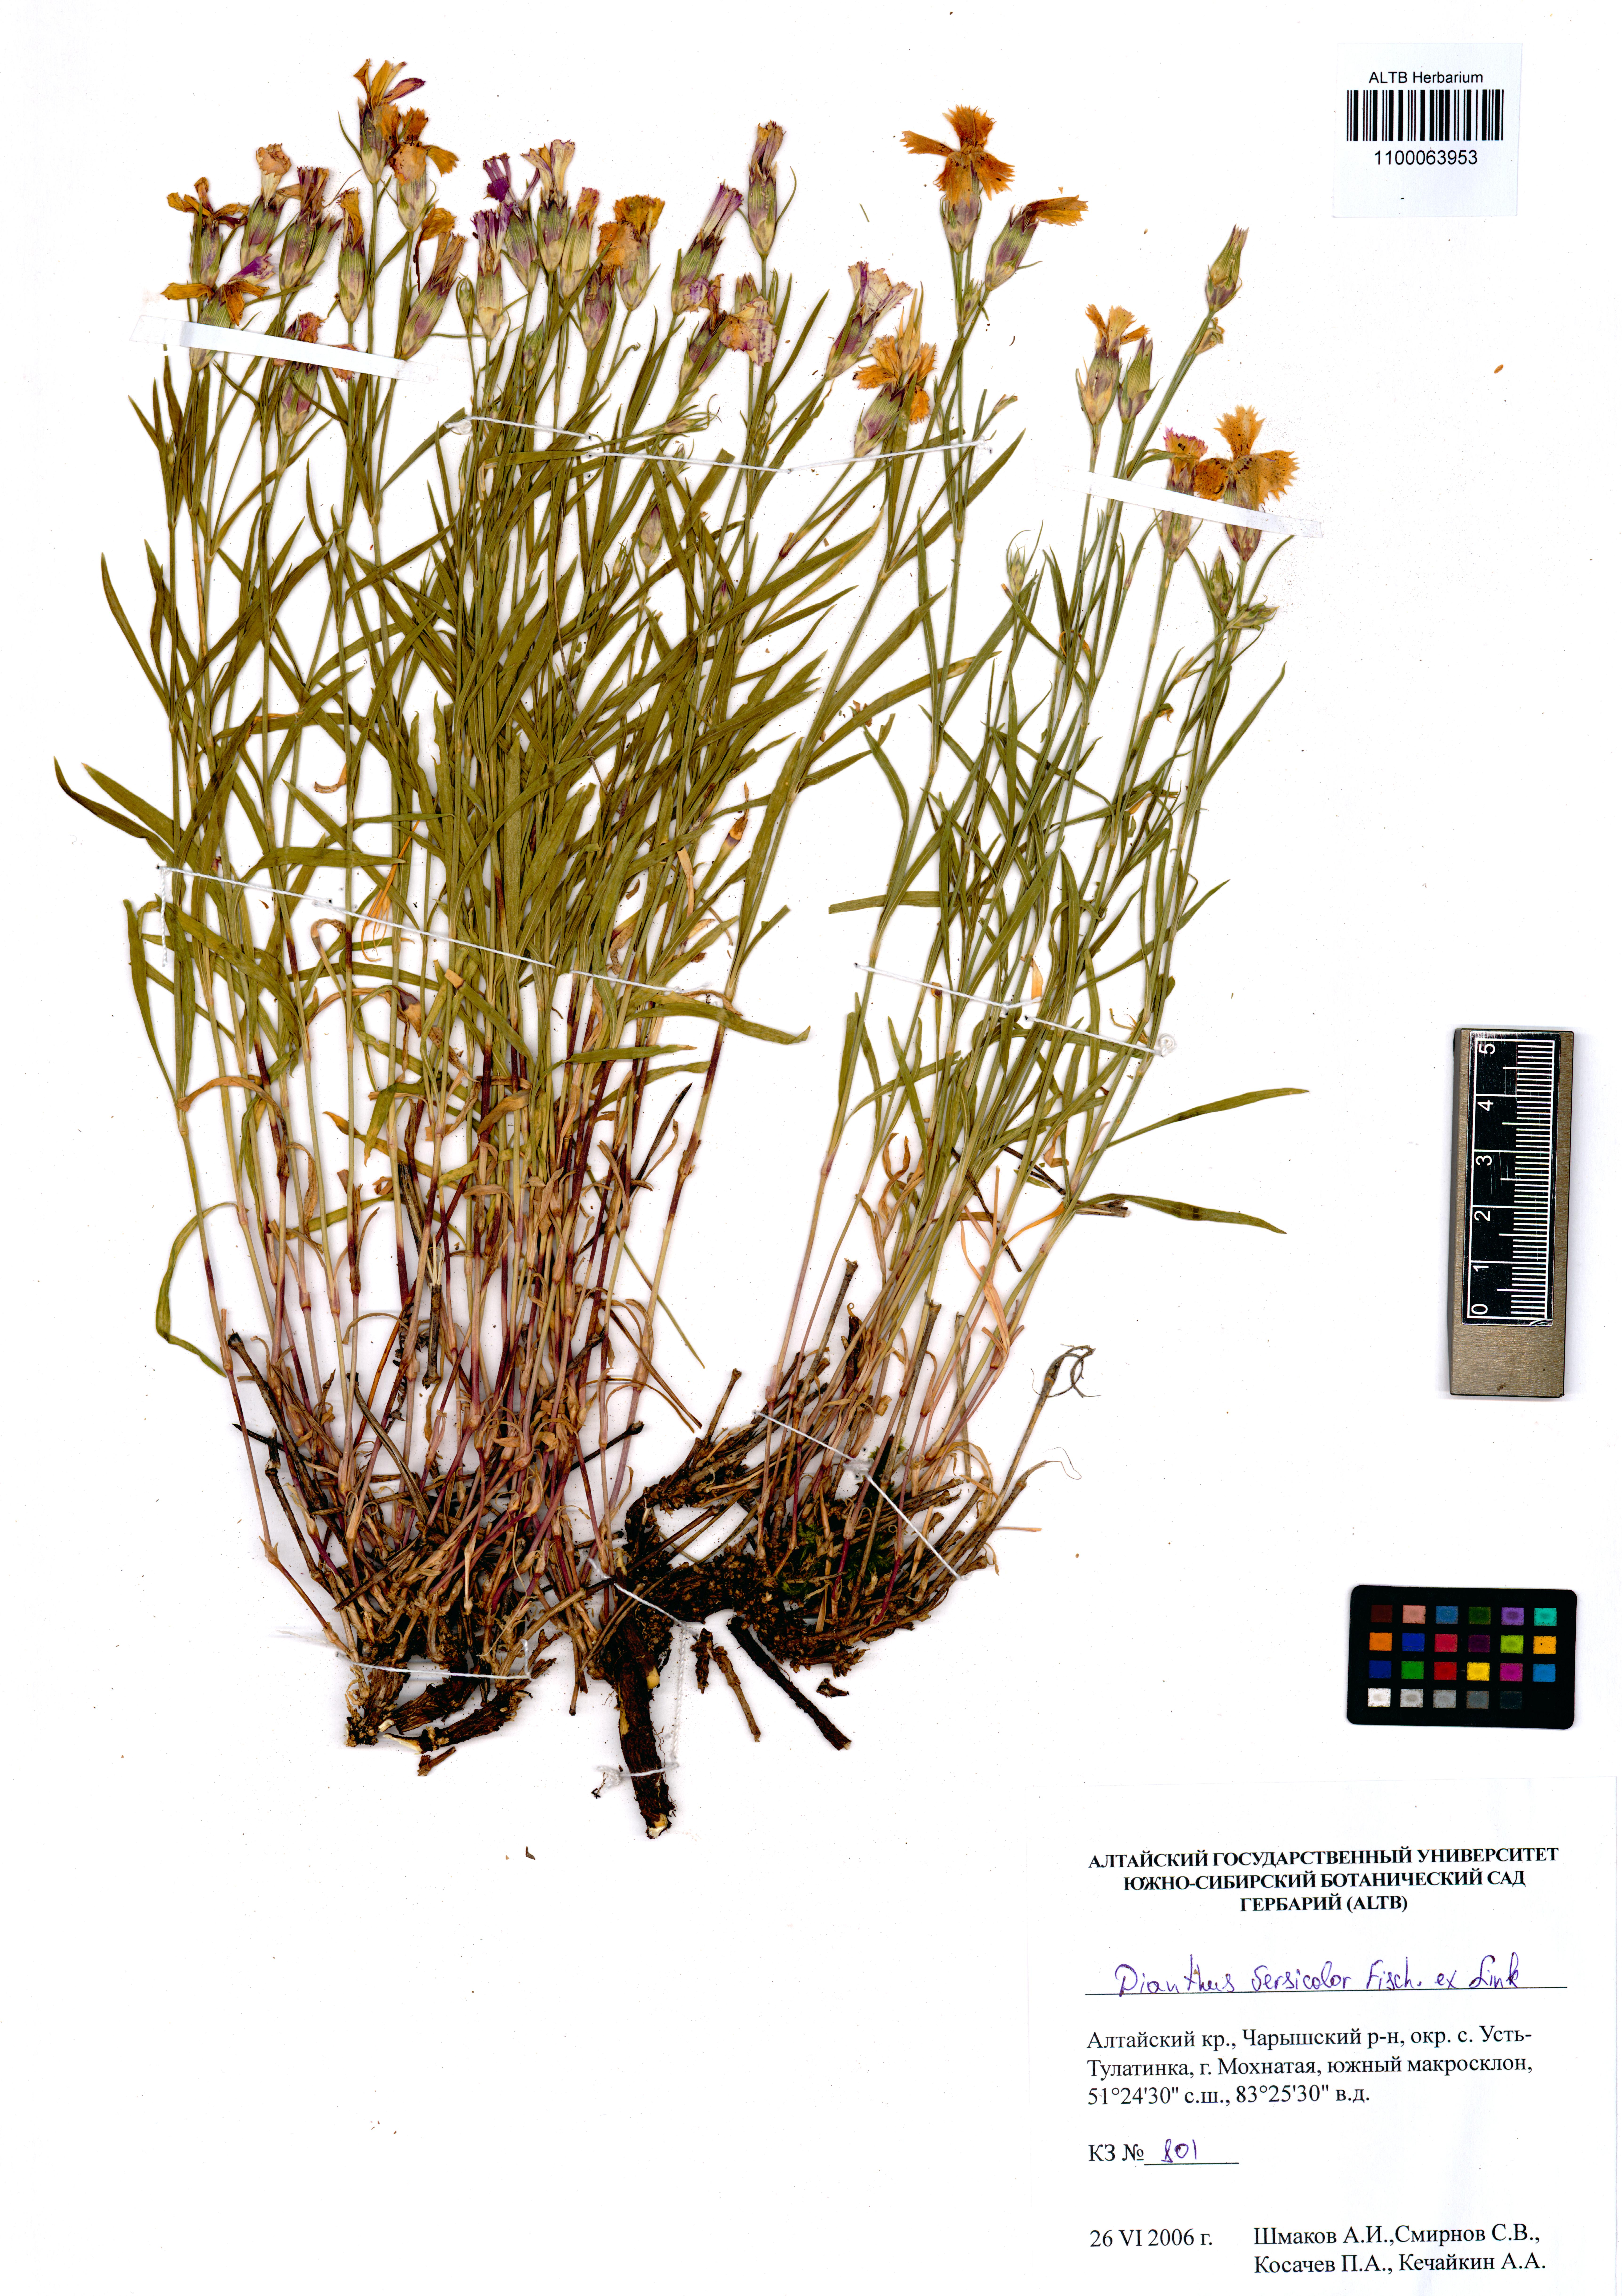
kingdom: Plantae
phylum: Tracheophyta
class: Magnoliopsida
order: Caryophyllales
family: Caryophyllaceae
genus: Dianthus
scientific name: Dianthus chinensis
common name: Rainbow pink
